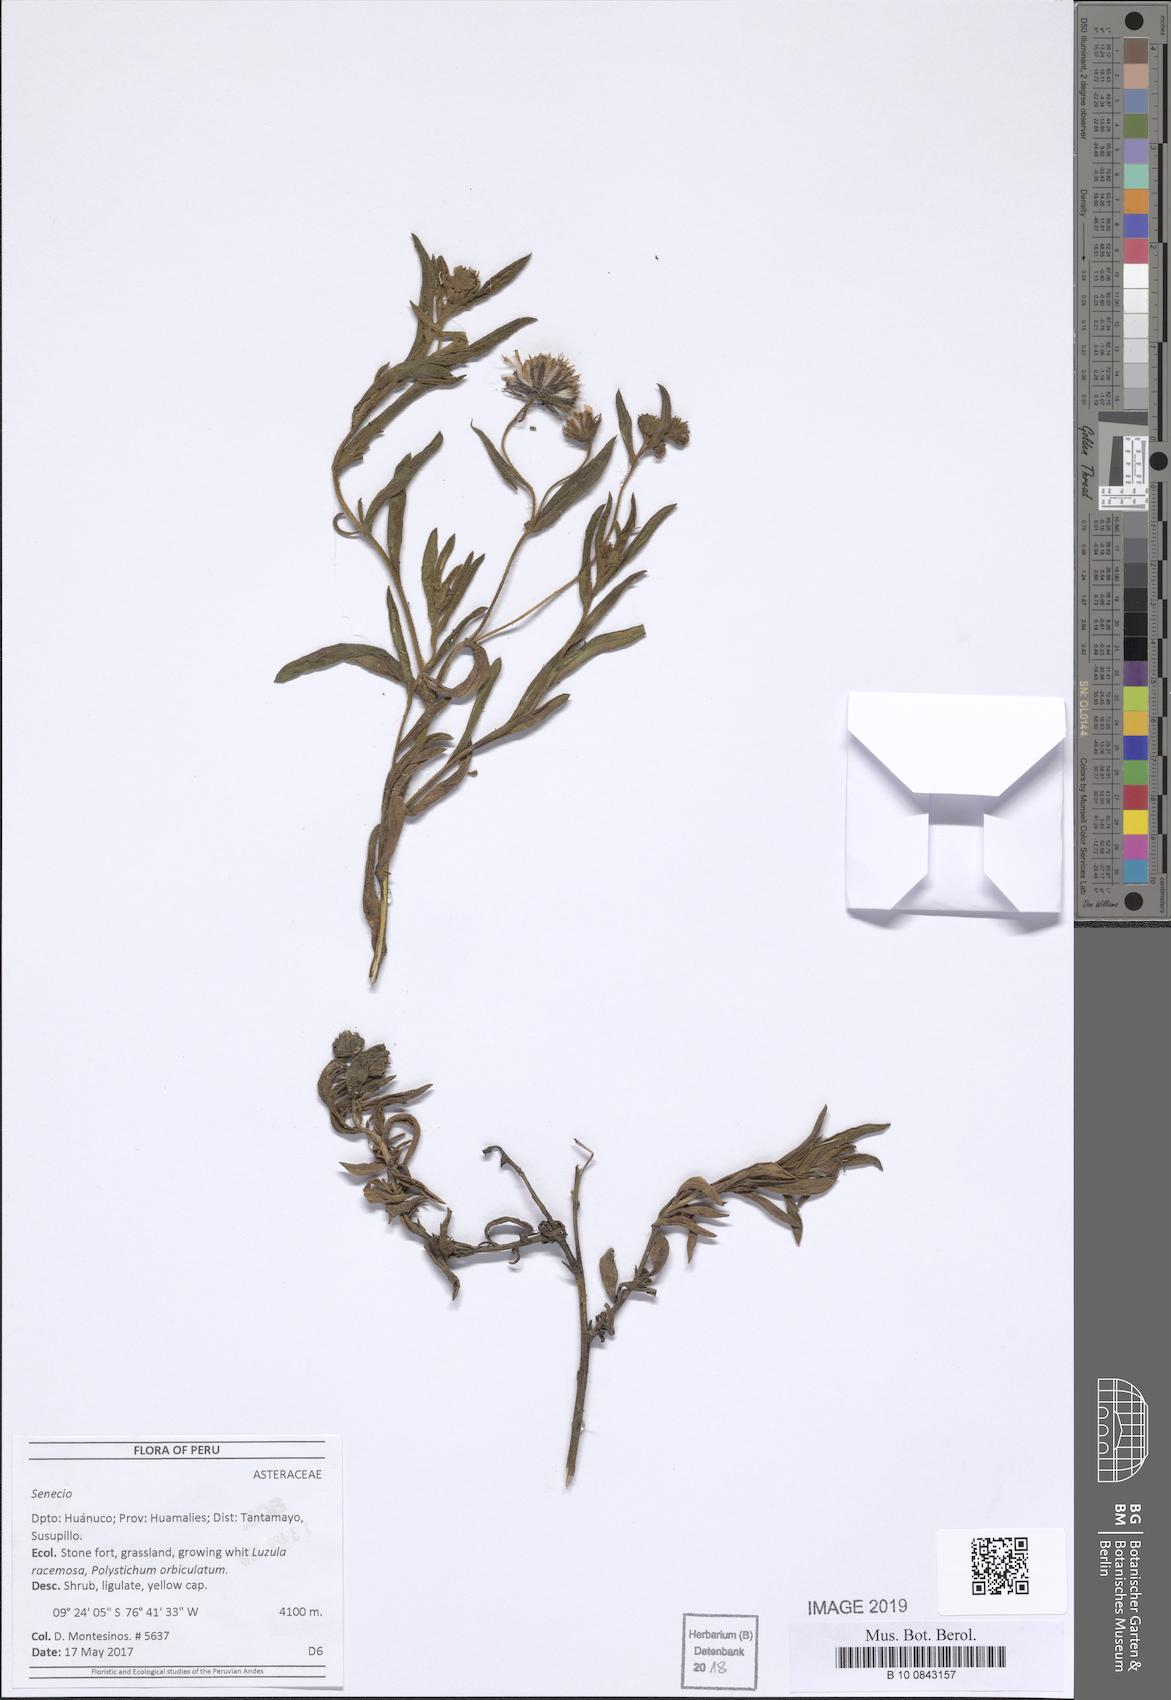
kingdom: Plantae
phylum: Tracheophyta
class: Magnoliopsida
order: Asterales
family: Asteraceae
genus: Senecio
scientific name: Senecio
